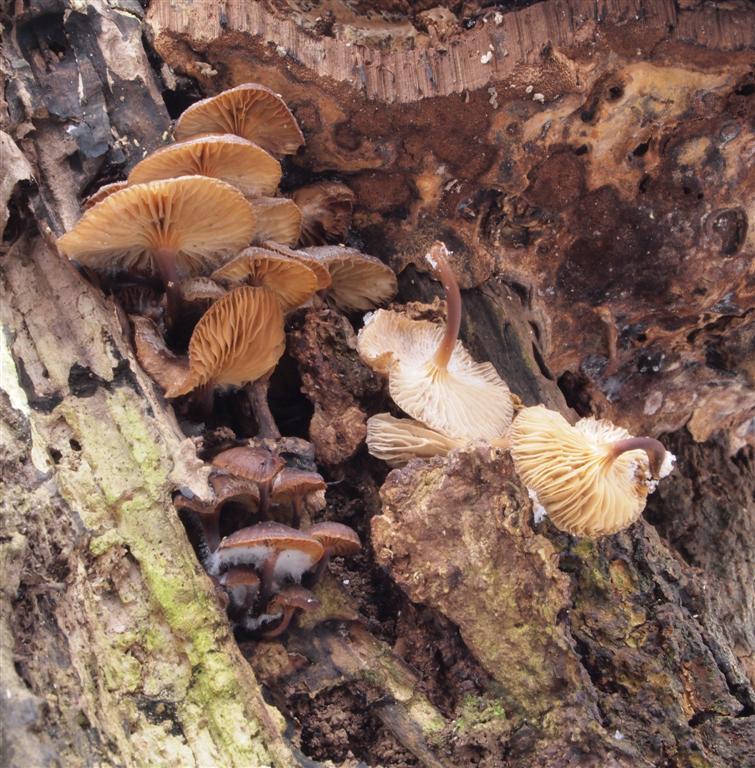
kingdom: Fungi
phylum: Basidiomycota
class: Agaricomycetes
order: Agaricales
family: Mycenaceae
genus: Mycena
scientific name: Mycena tintinnabulum
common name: vinter-huesvamp
